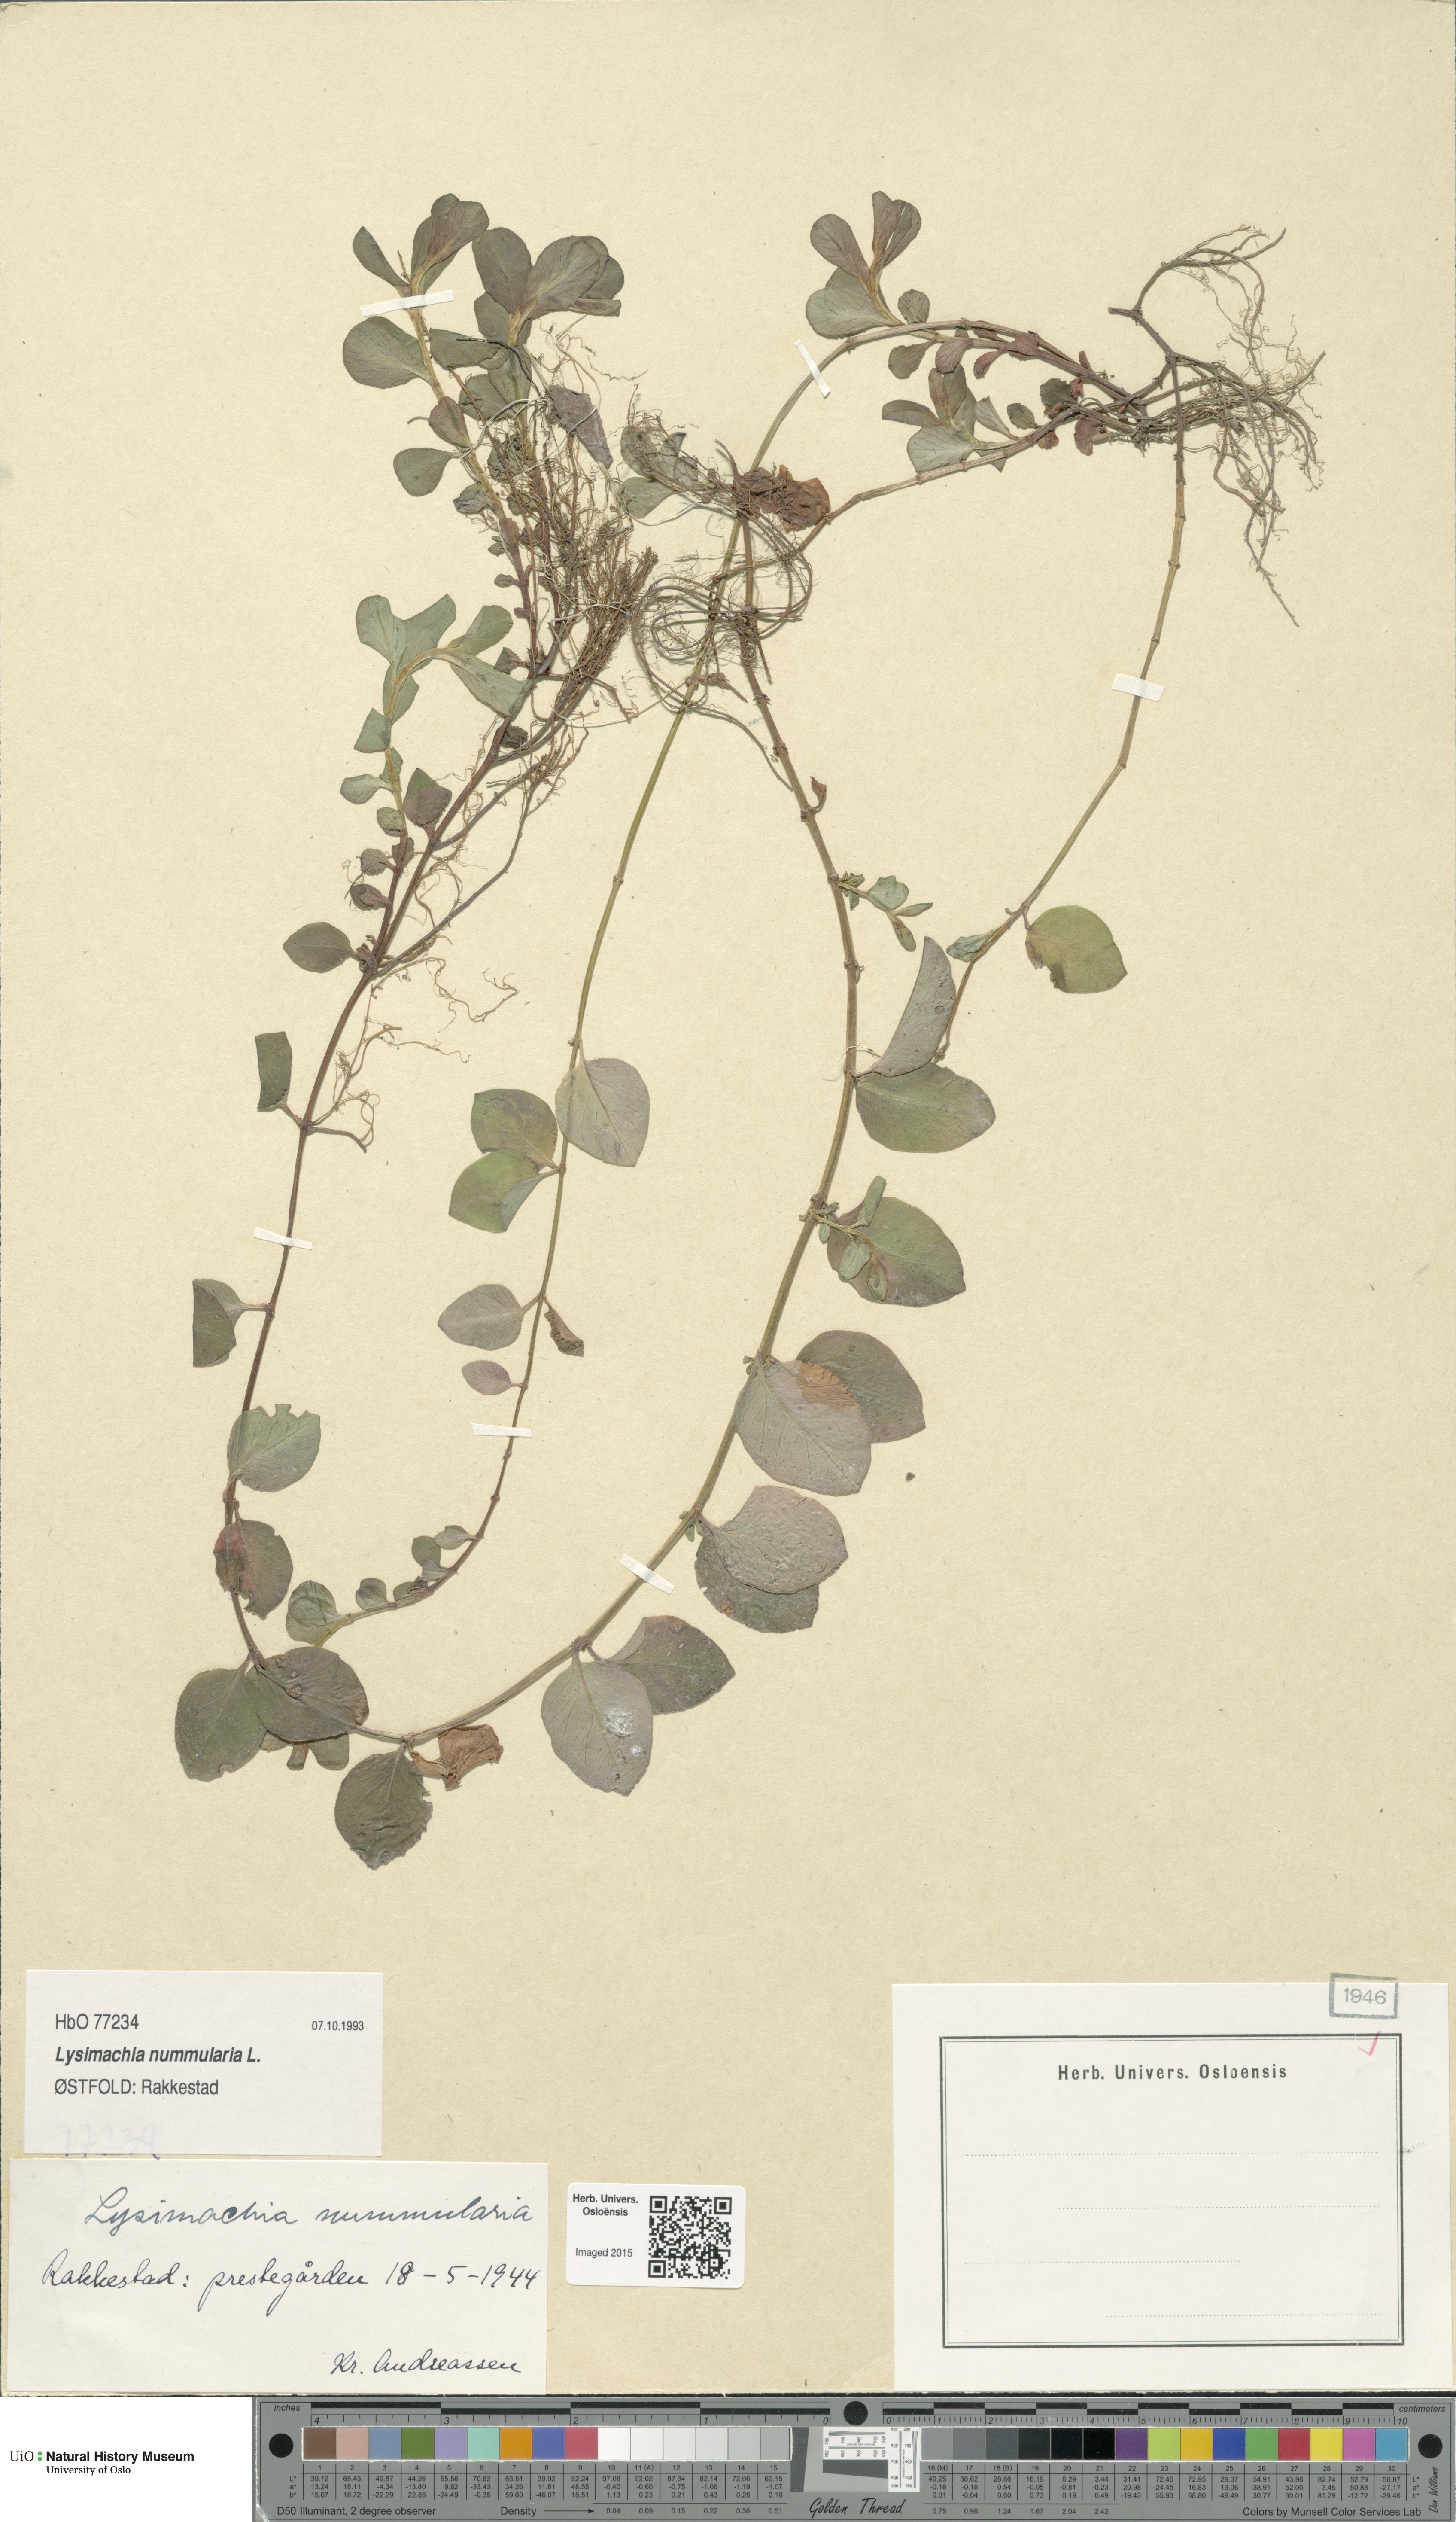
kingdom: Plantae
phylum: Tracheophyta
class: Magnoliopsida
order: Ericales
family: Primulaceae
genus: Lysimachia
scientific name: Lysimachia nummularia
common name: Moneywort
